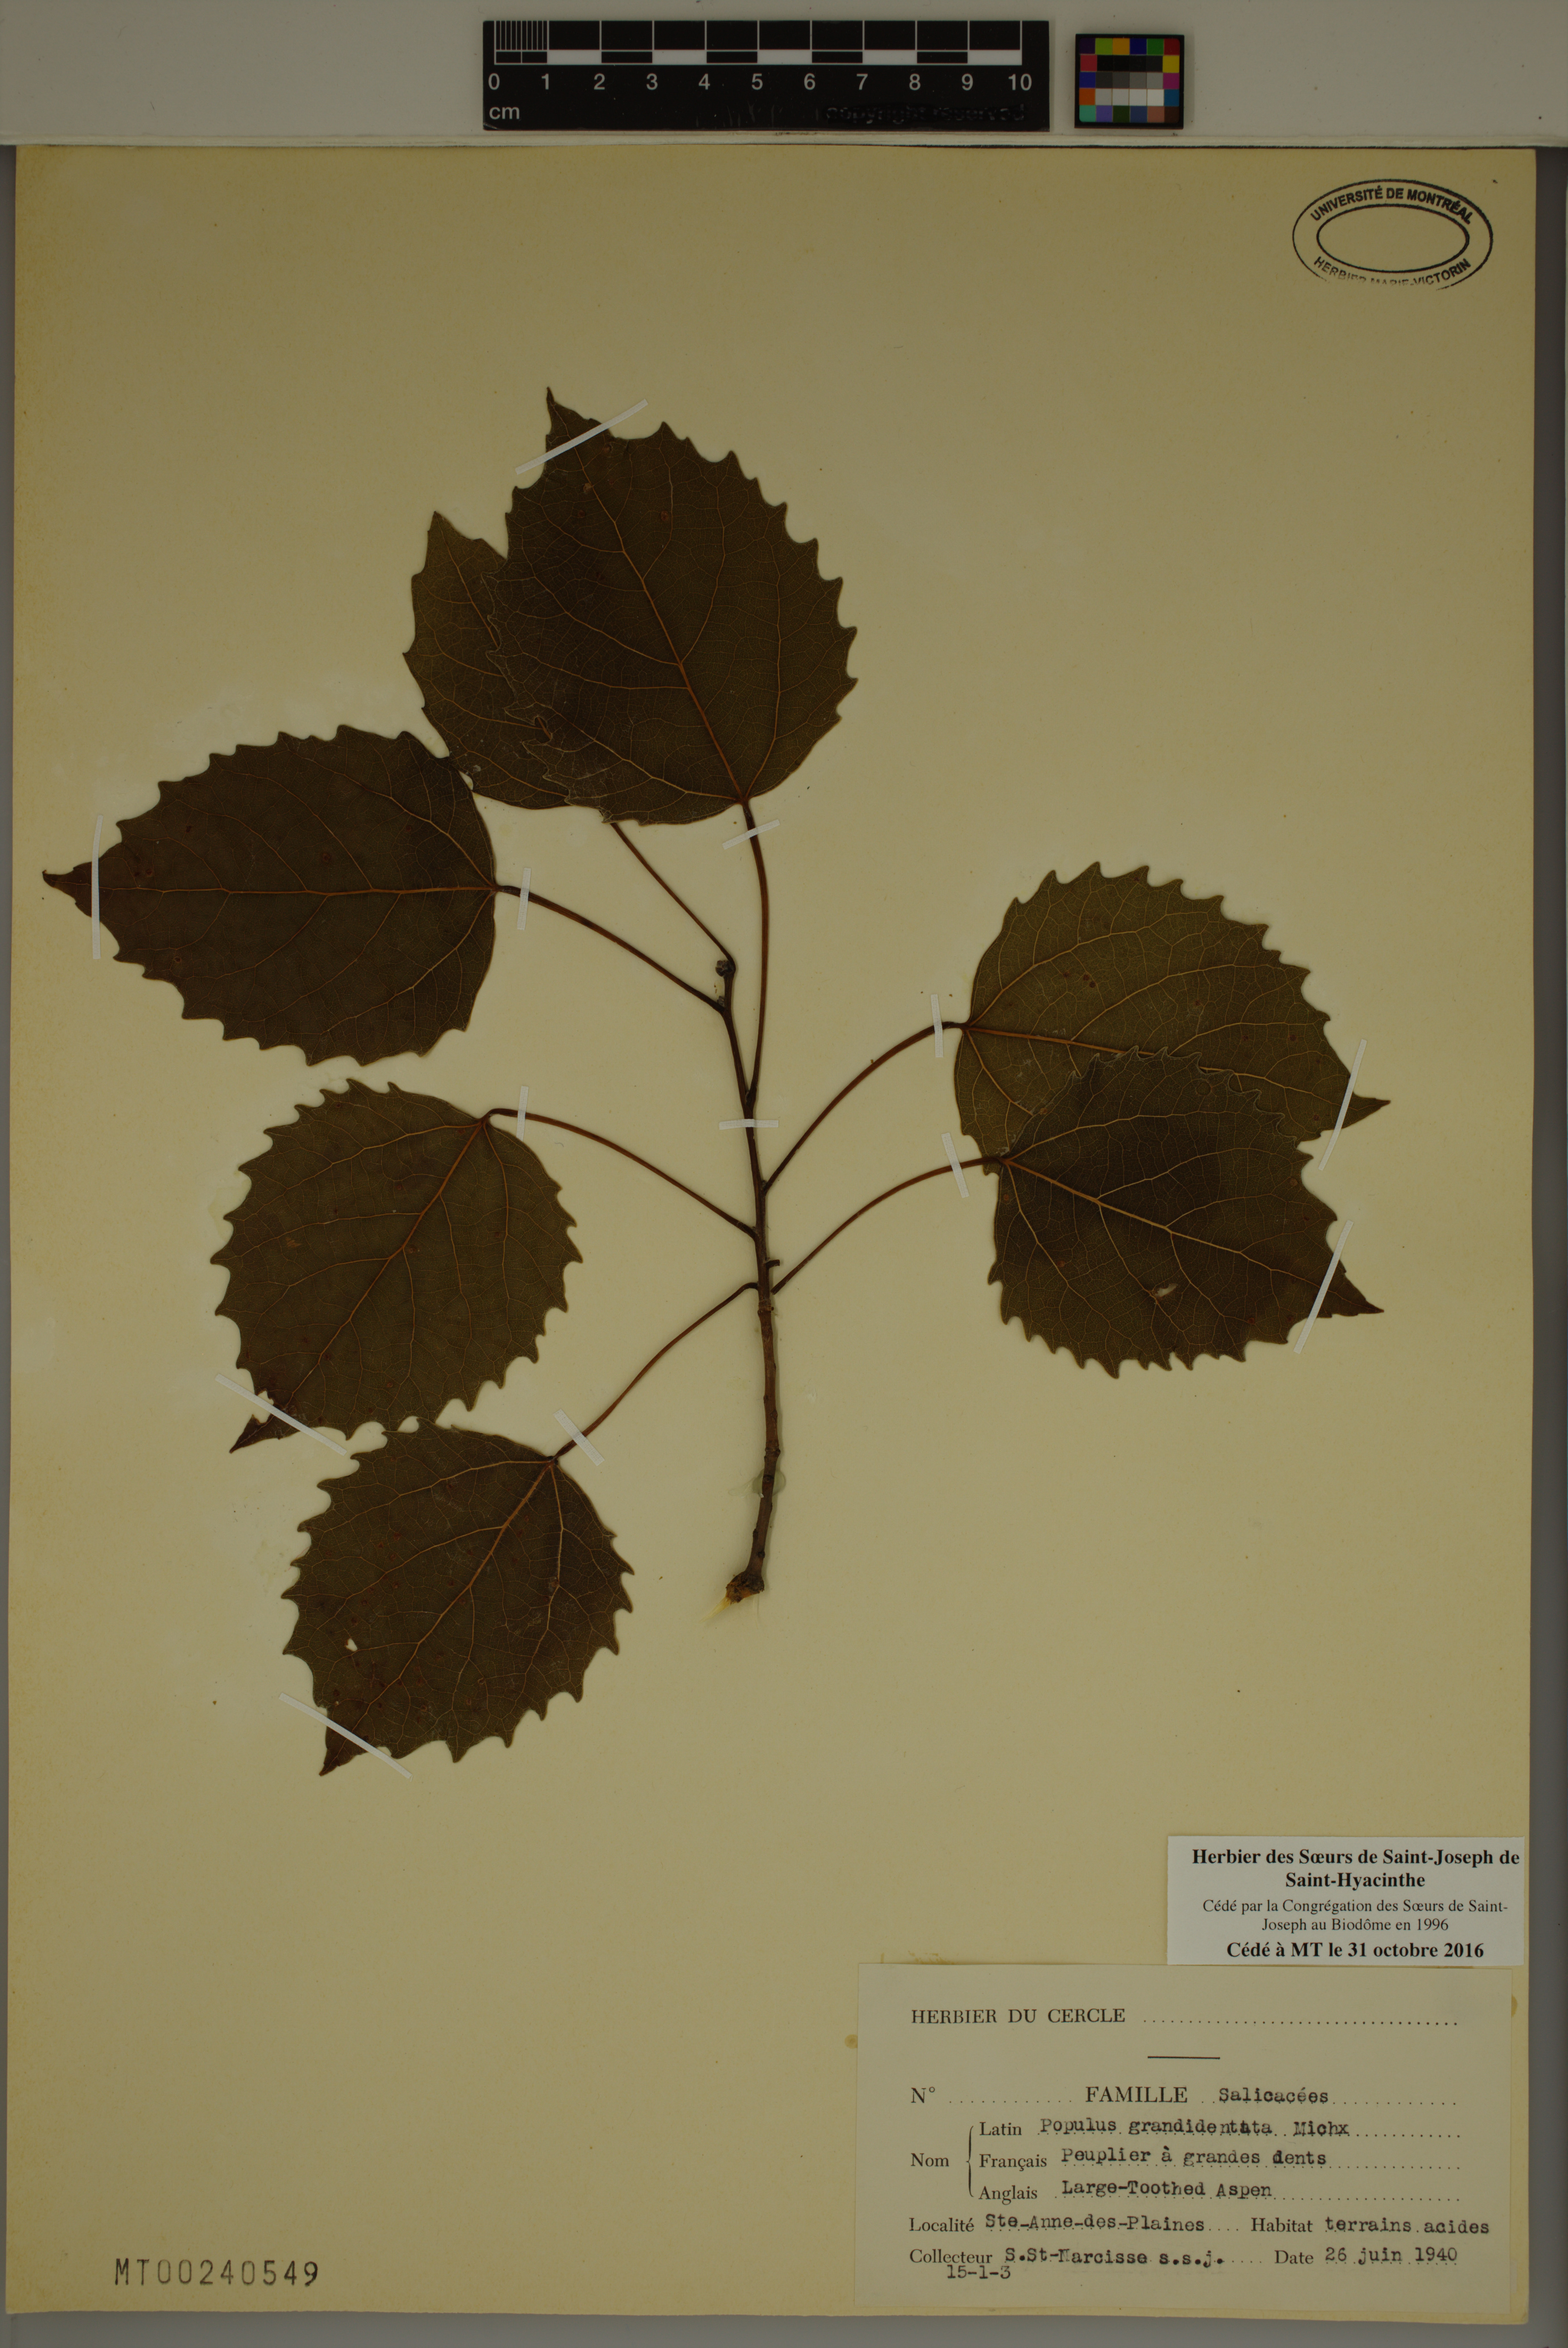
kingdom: Plantae
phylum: Tracheophyta
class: Magnoliopsida
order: Malpighiales
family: Salicaceae
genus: Populus
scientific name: Populus grandidentata
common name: Bigtooth aspen
